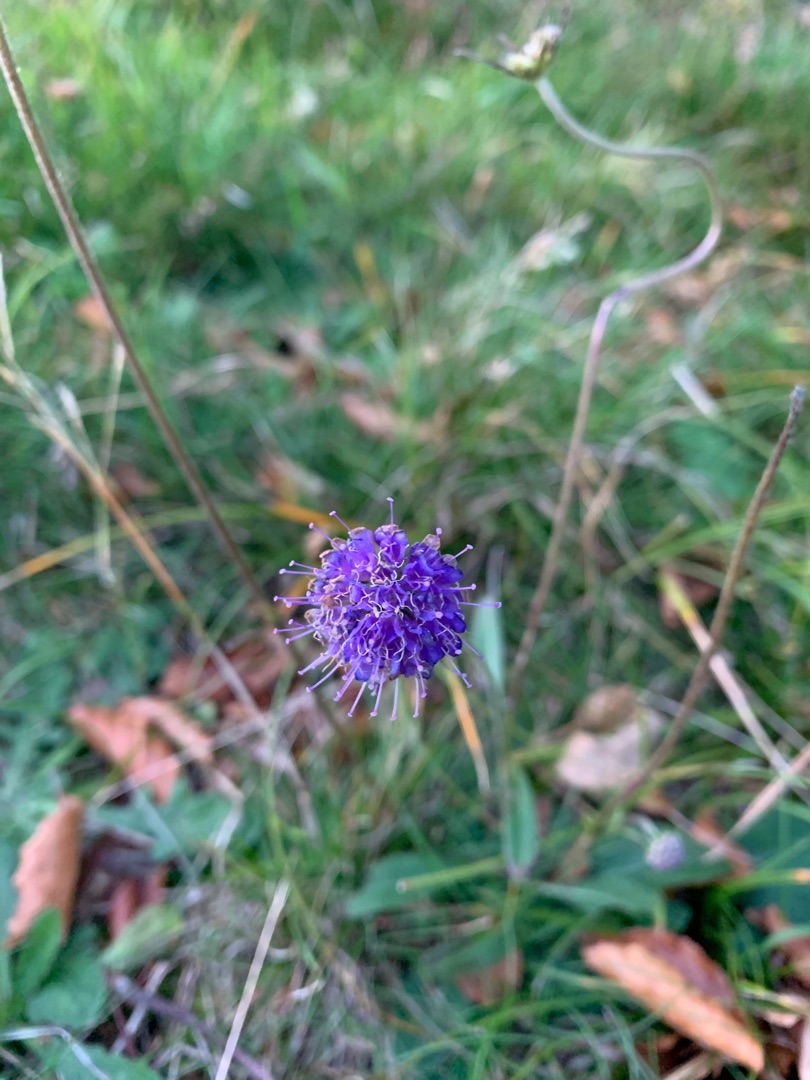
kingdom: Plantae
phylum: Tracheophyta
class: Magnoliopsida
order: Dipsacales
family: Caprifoliaceae
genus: Succisa
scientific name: Succisa pratensis
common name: Djævelsbid
